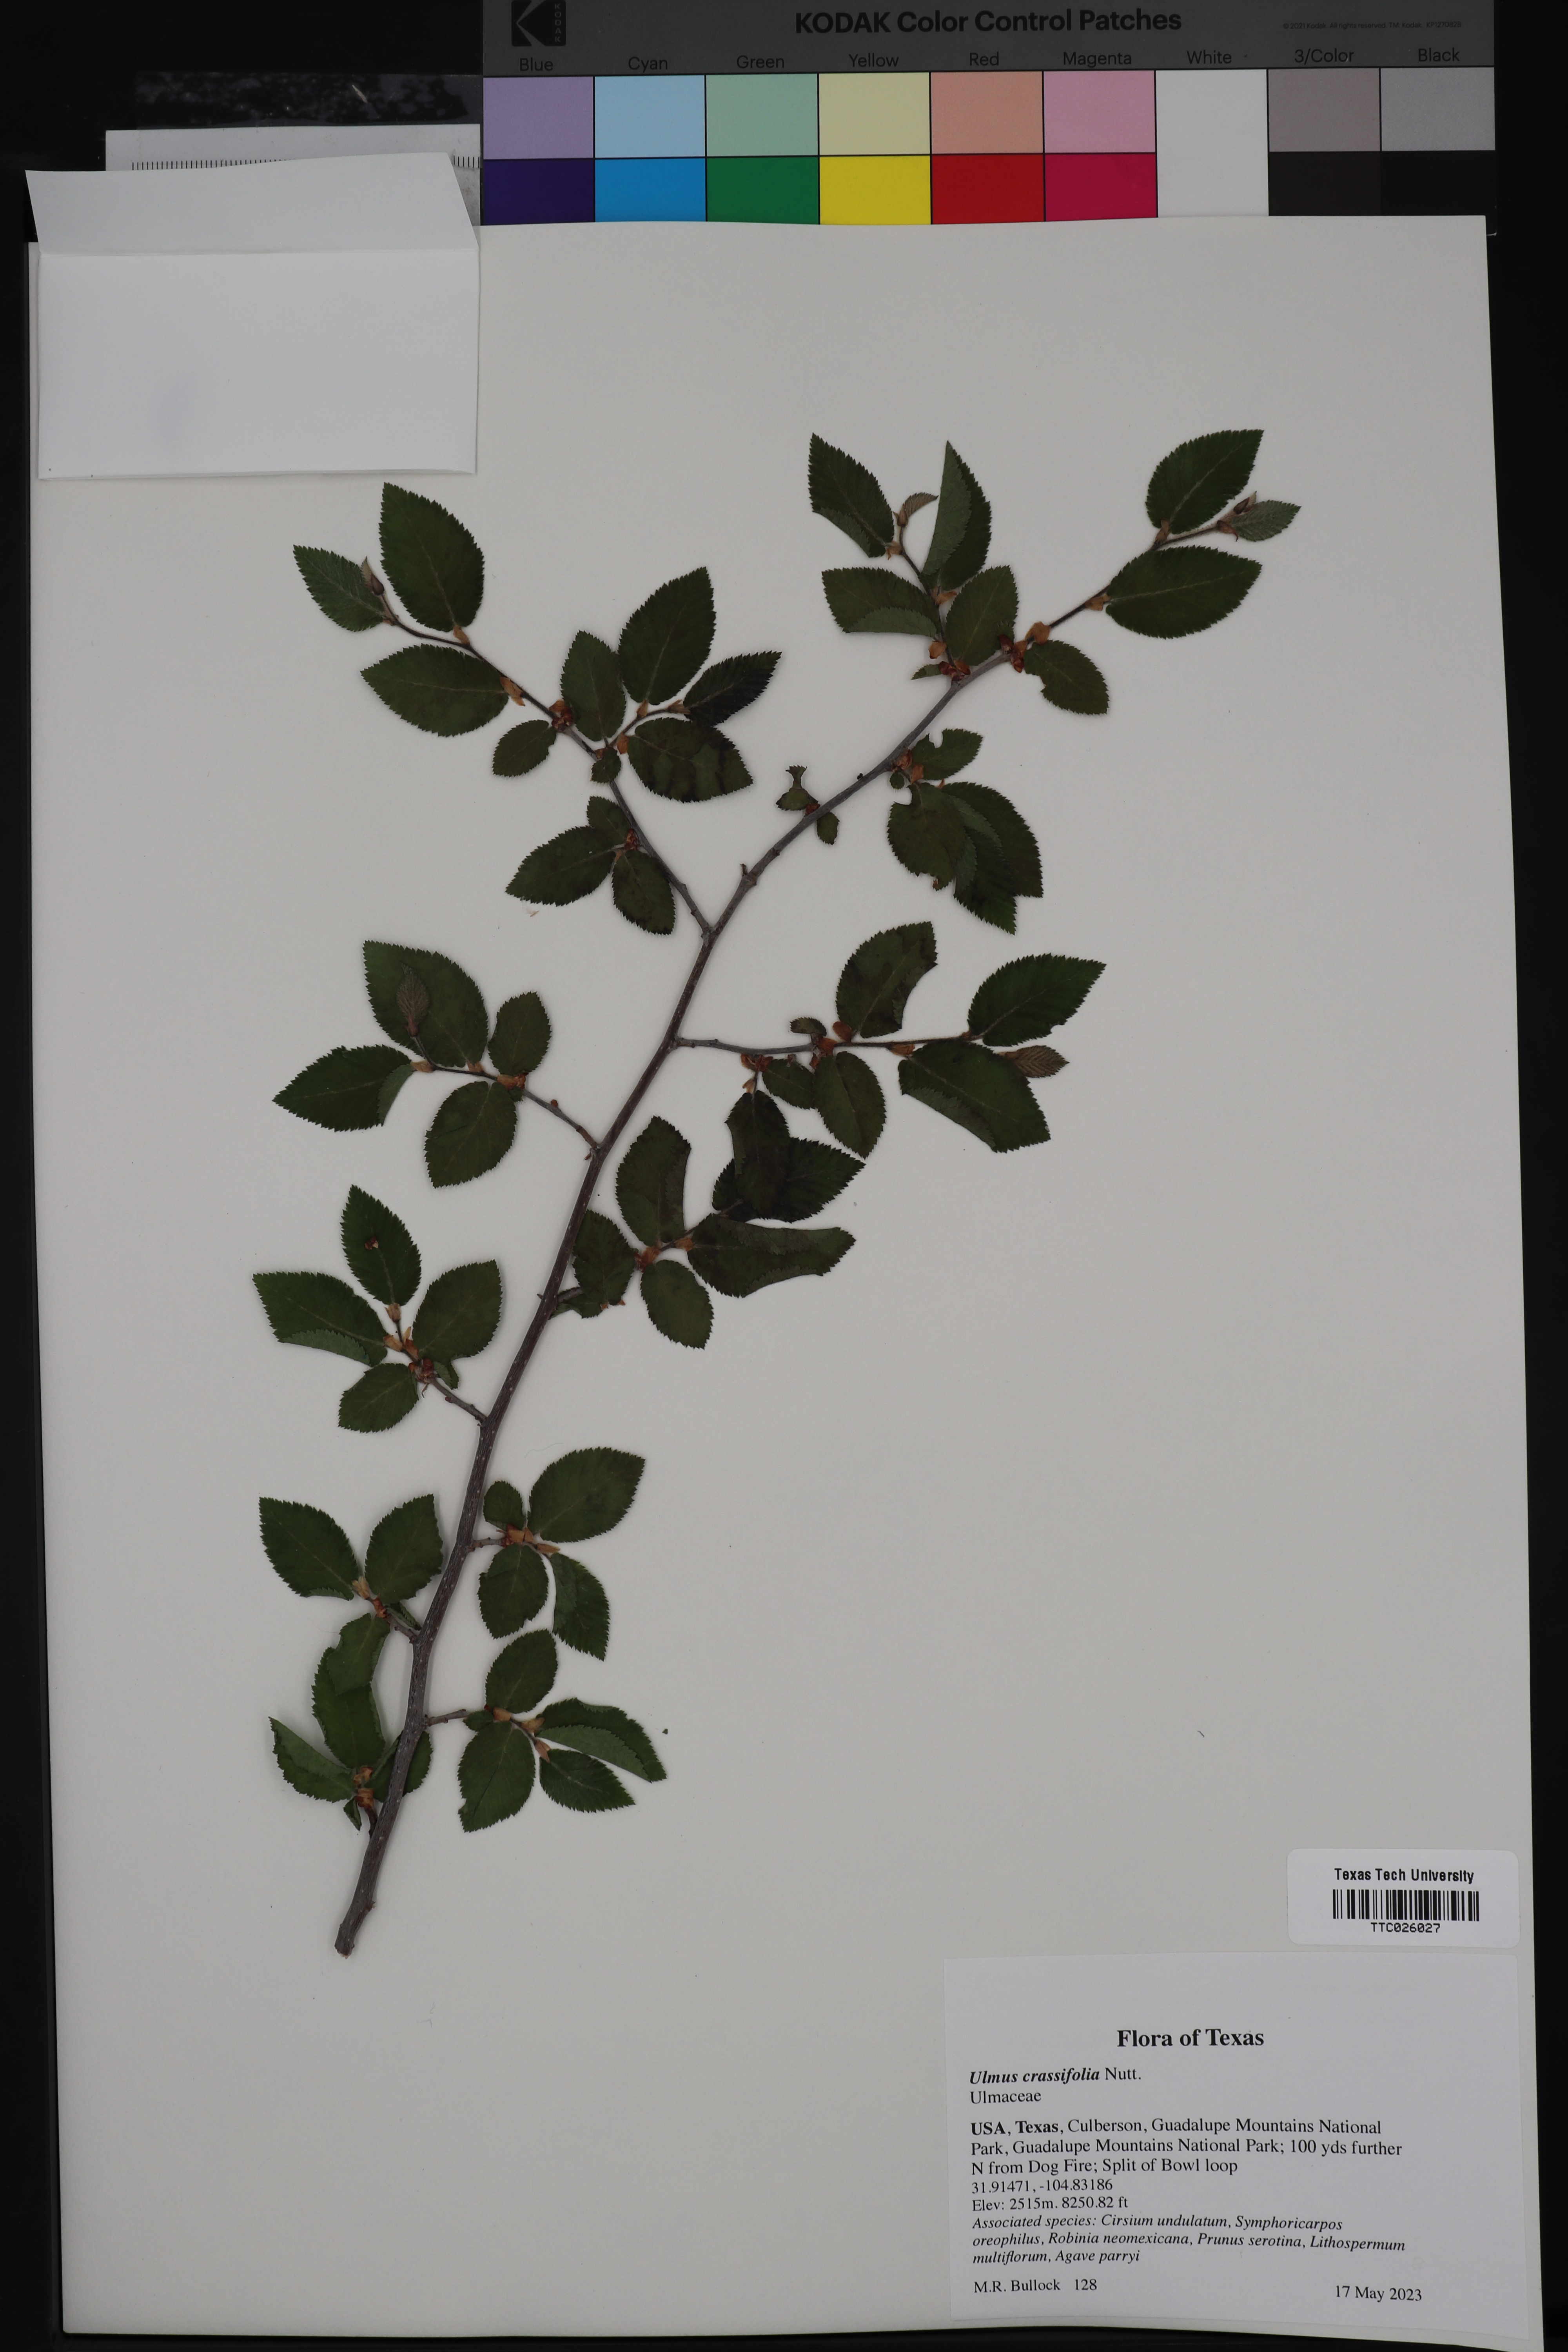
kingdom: Plantae
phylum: Tracheophyta
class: Magnoliopsida
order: Rosales
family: Ulmaceae
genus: Ulmus
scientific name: Ulmus crassifolia
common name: Basket elm
